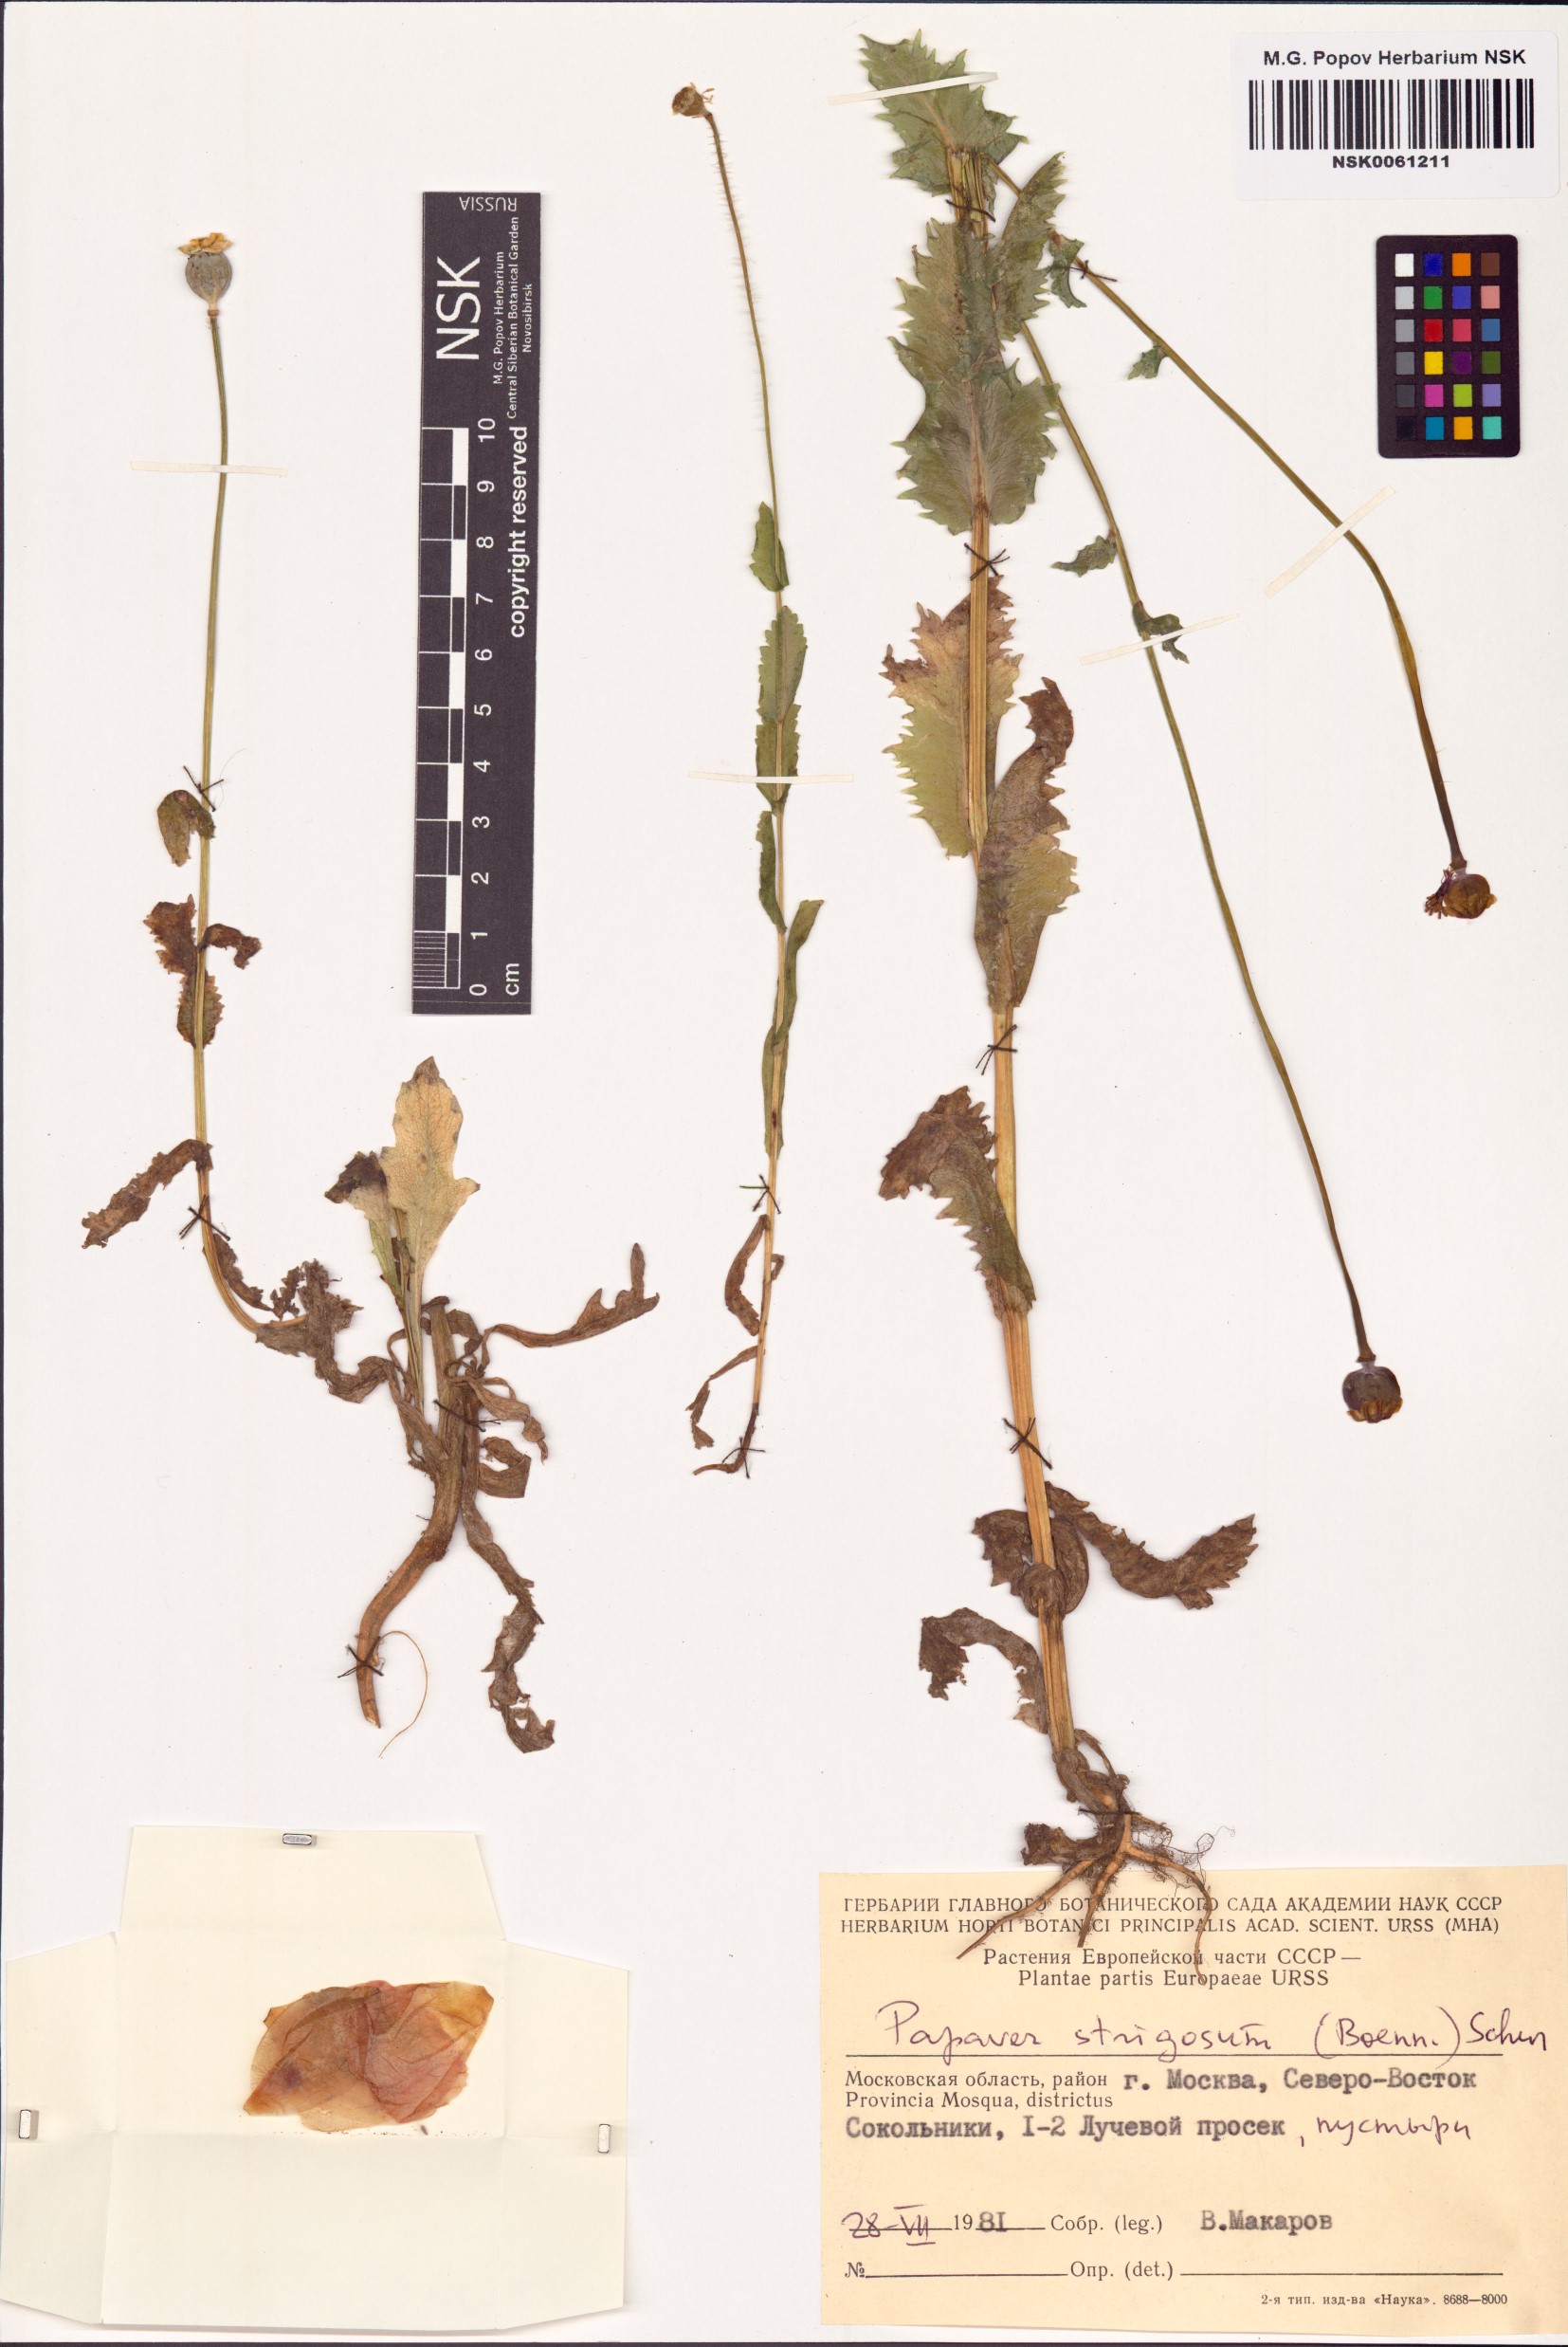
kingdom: Plantae
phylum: Tracheophyta
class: Magnoliopsida
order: Ranunculales
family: Papaveraceae
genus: Papaver
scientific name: Papaver strigosum
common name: Poppy
